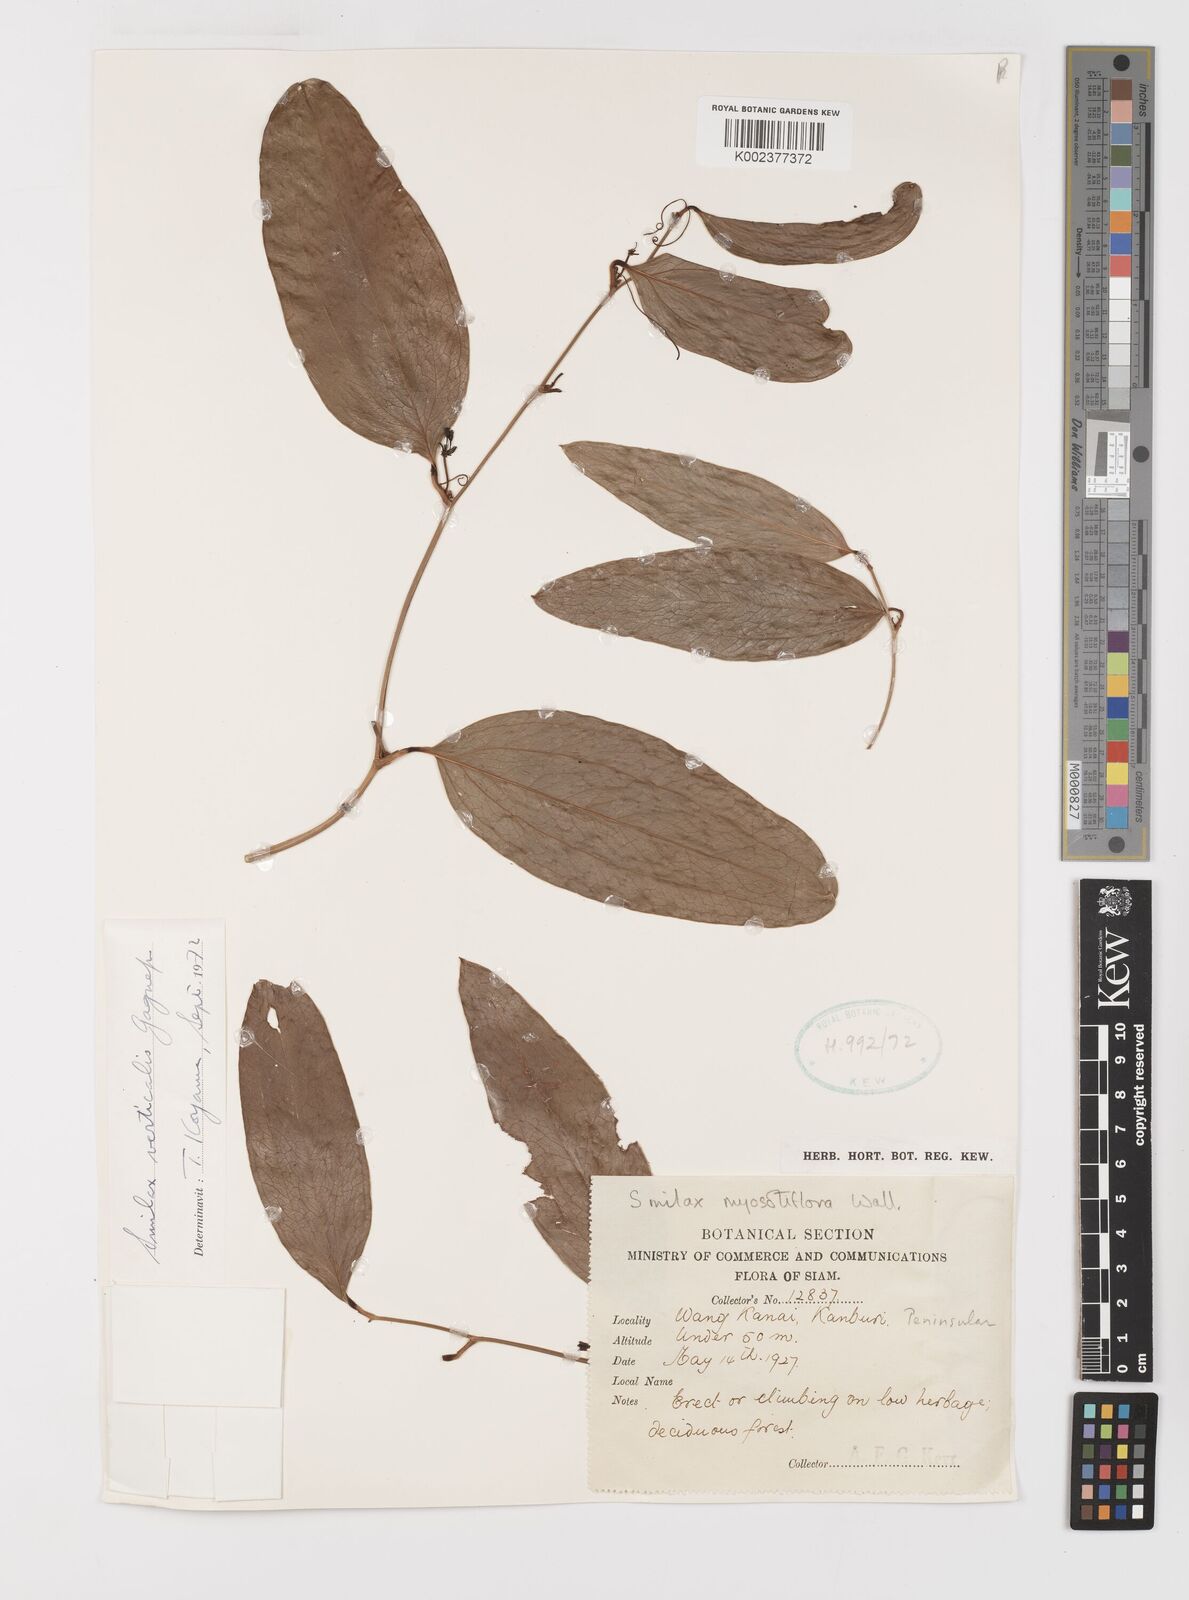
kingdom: Plantae
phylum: Tracheophyta
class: Liliopsida
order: Liliales
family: Smilacaceae
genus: Smilax
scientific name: Smilax verticalis
